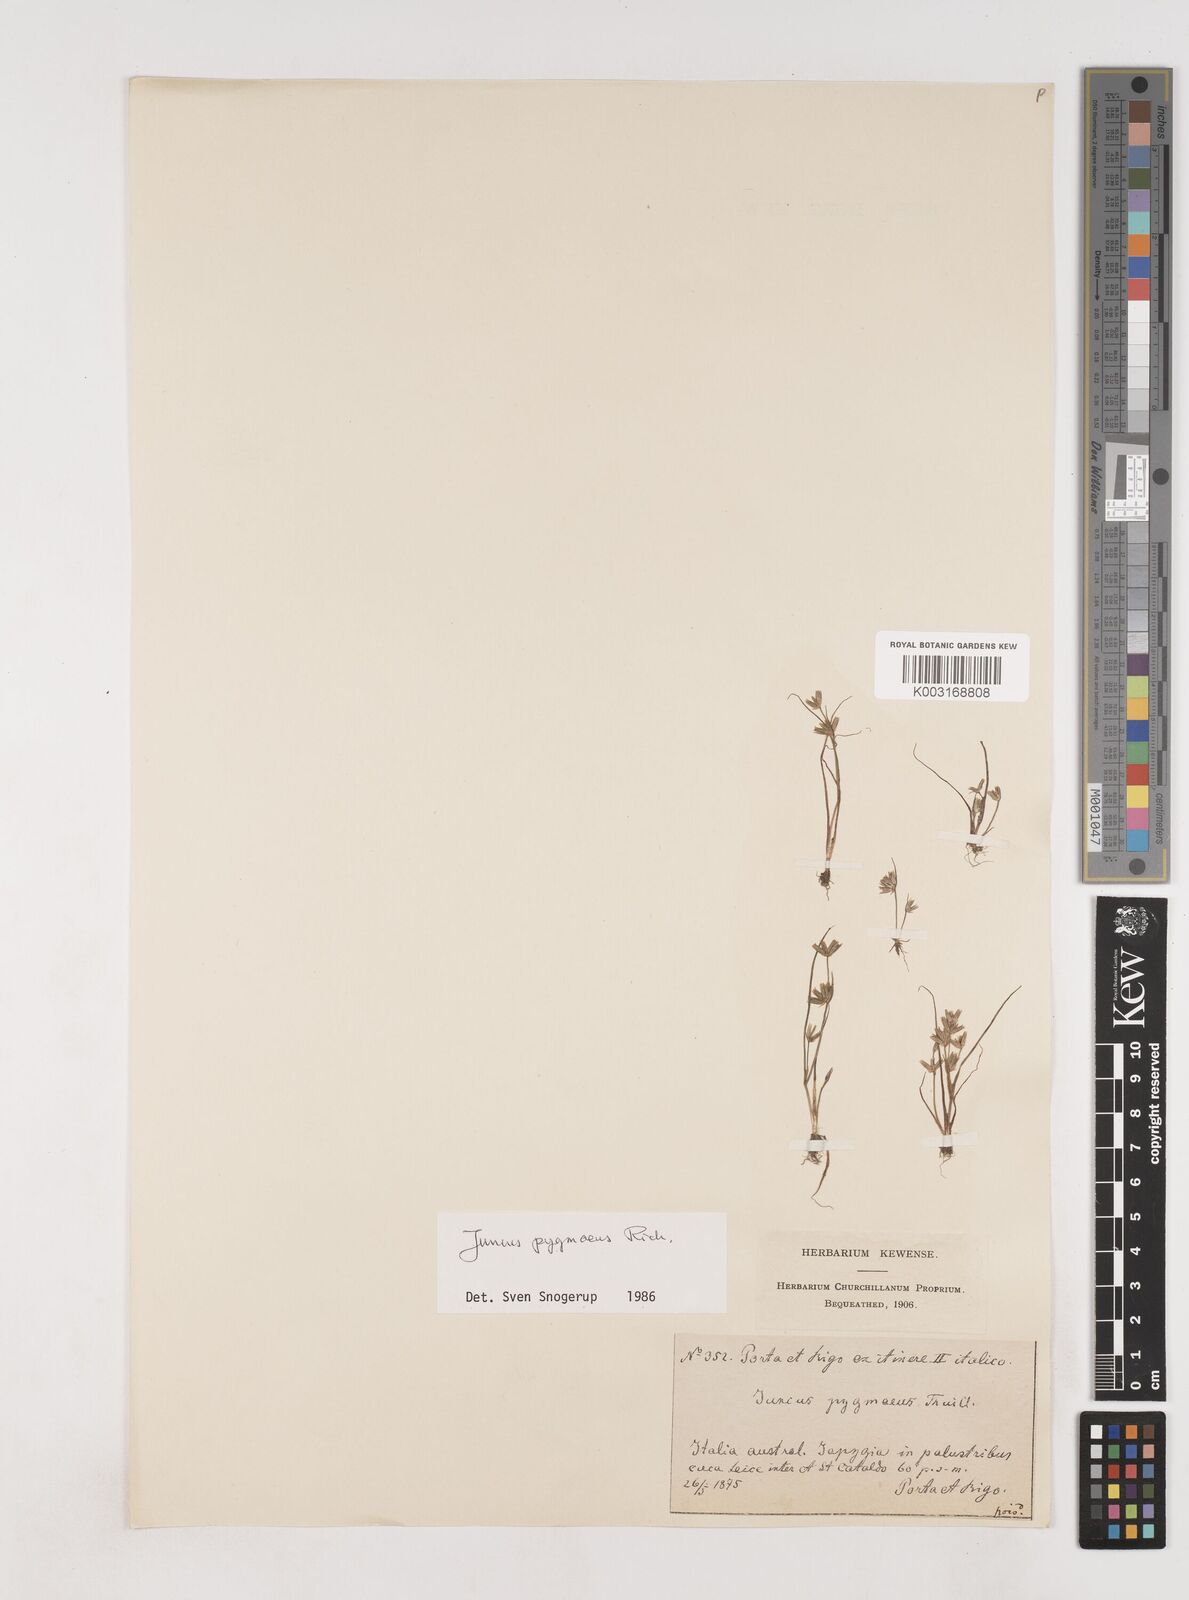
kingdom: Plantae
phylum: Tracheophyta
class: Liliopsida
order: Poales
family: Juncaceae
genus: Juncus
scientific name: Juncus pygmaeus
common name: Pigmy rush
